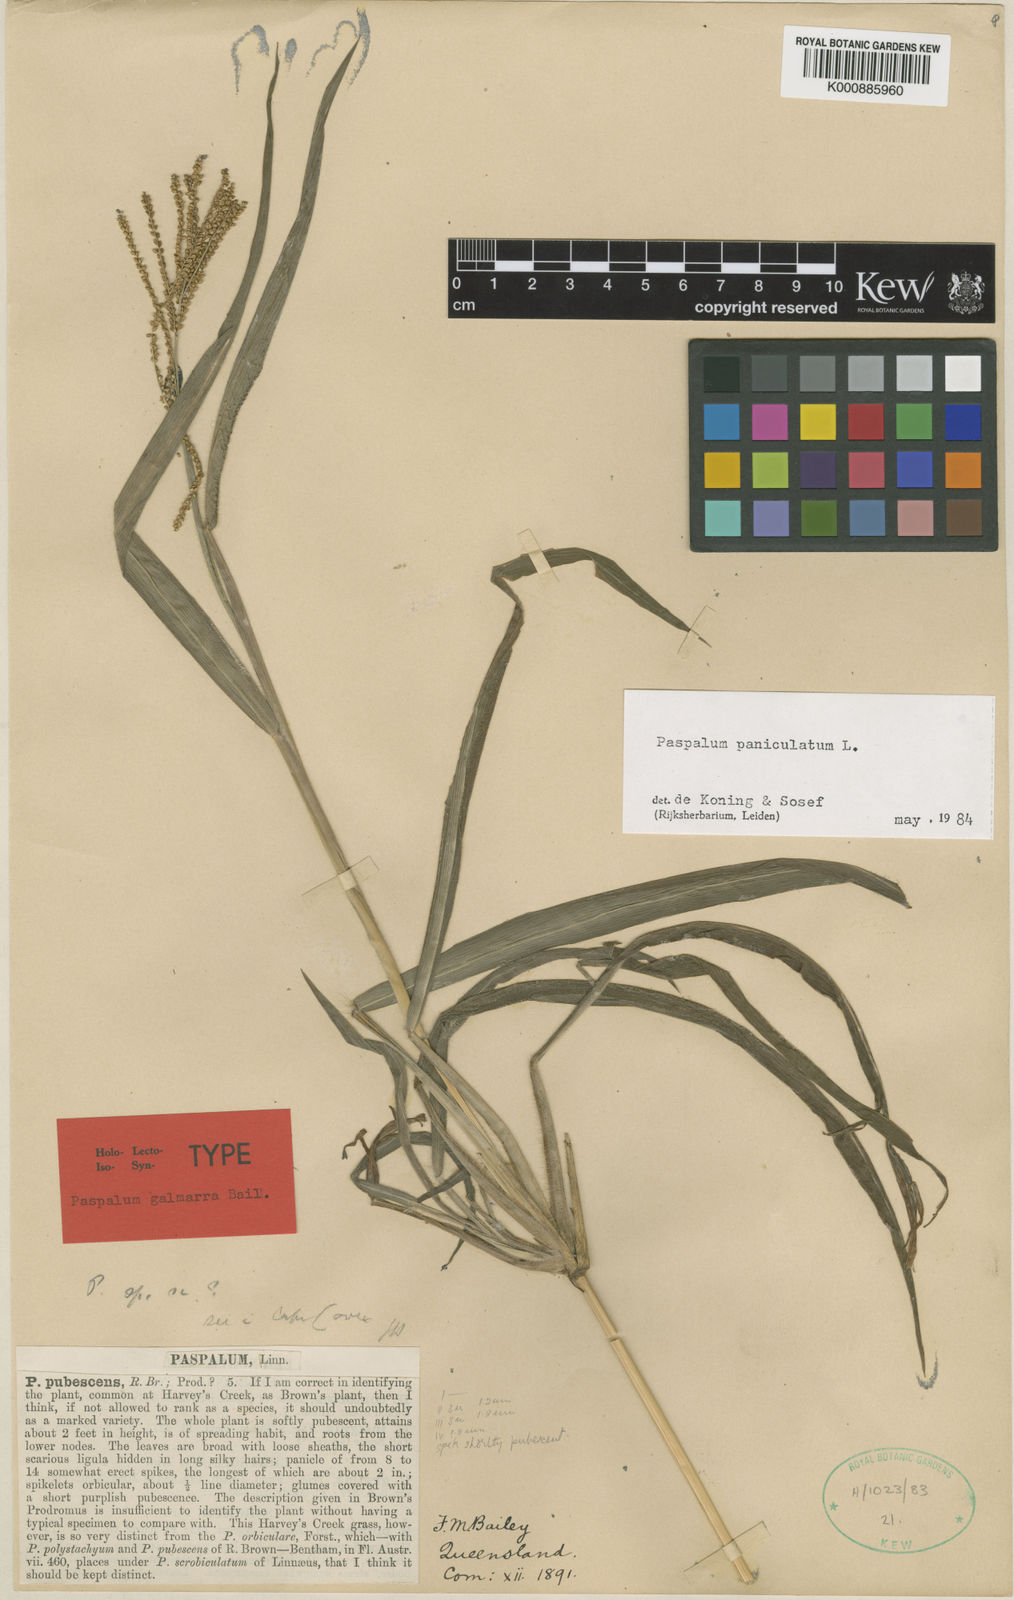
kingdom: Plantae
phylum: Tracheophyta
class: Liliopsida
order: Poales
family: Poaceae
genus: Paspalum
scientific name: Paspalum paniculatum
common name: Arrocillo
